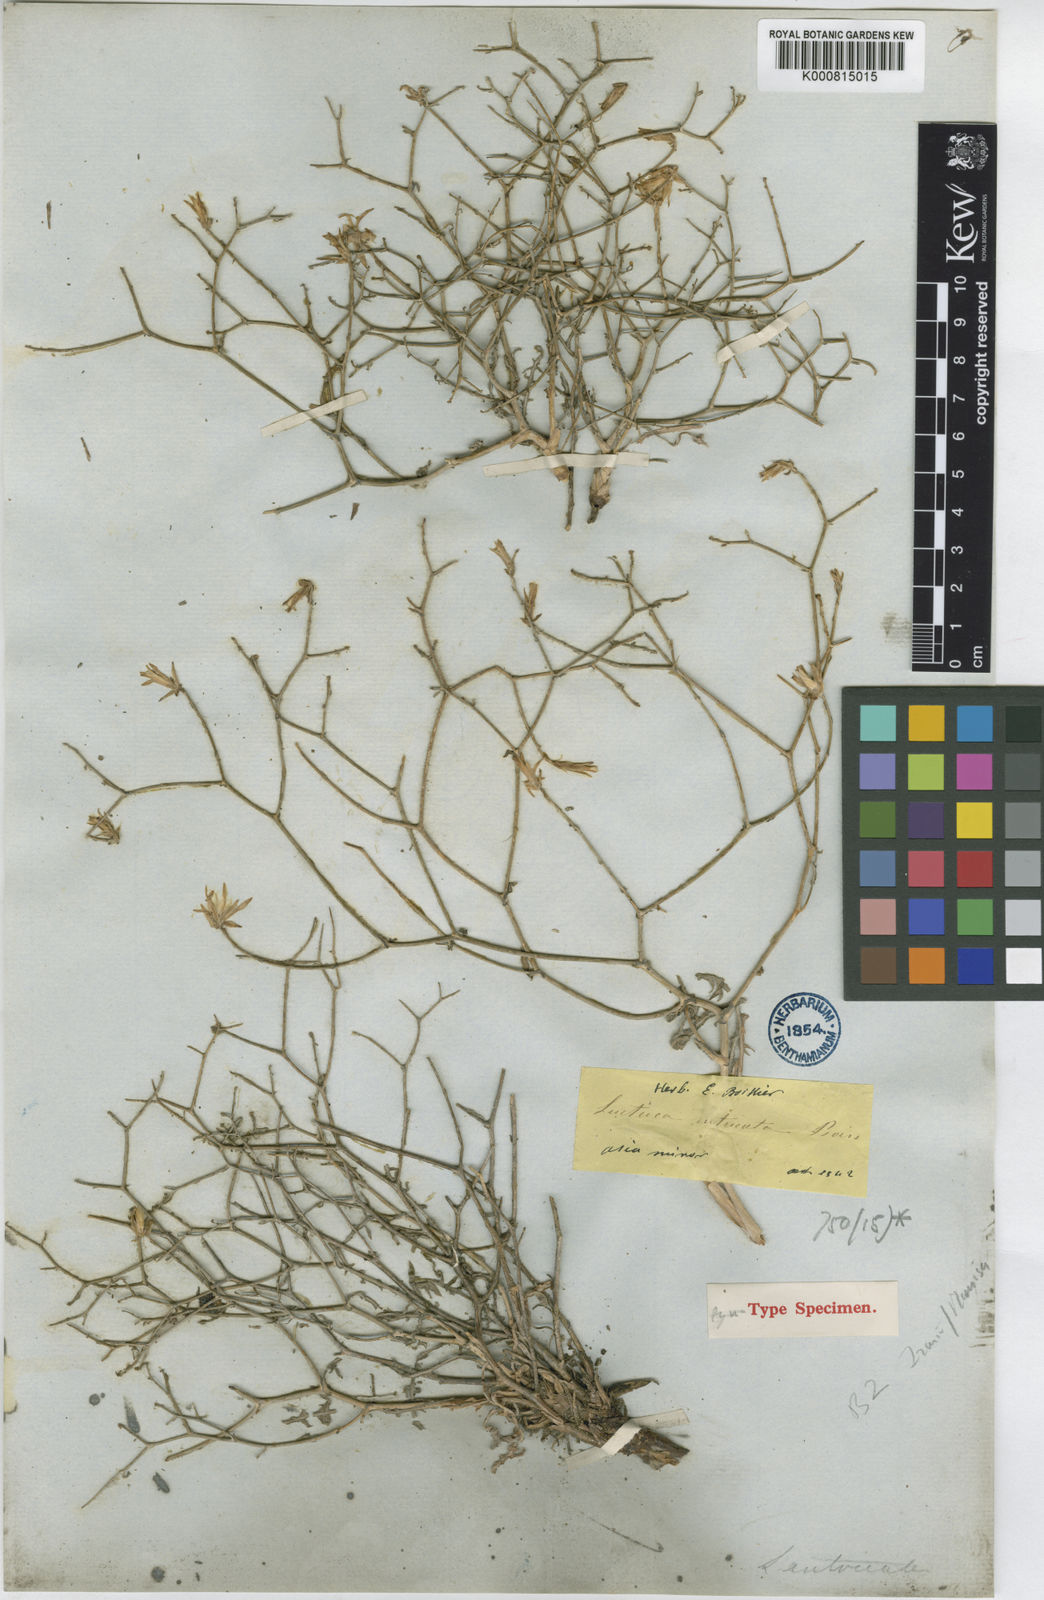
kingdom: Plantae
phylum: Tracheophyta
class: Magnoliopsida
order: Asterales
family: Asteraceae
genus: Lactuca
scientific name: Lactuca intricata
